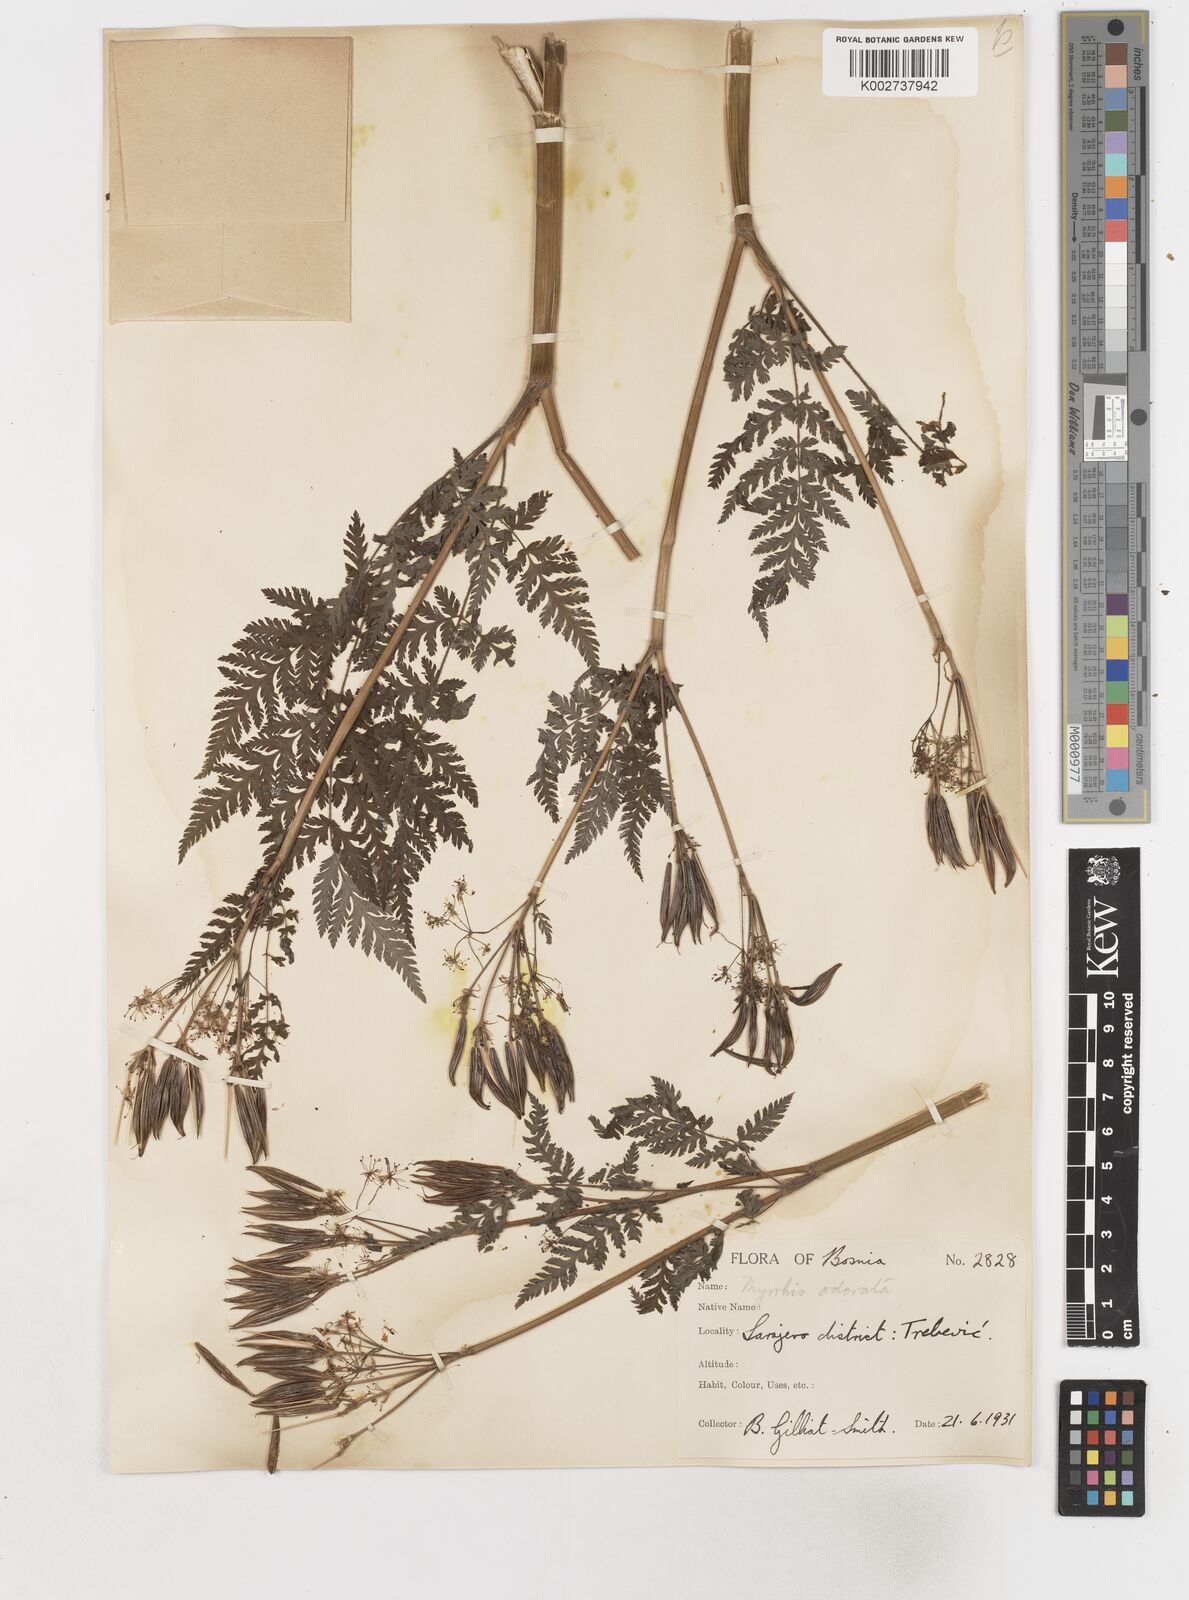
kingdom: Plantae
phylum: Tracheophyta
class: Magnoliopsida
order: Apiales
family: Apiaceae
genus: Myrrhis
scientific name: Myrrhis odorata
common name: Sweet cicely
